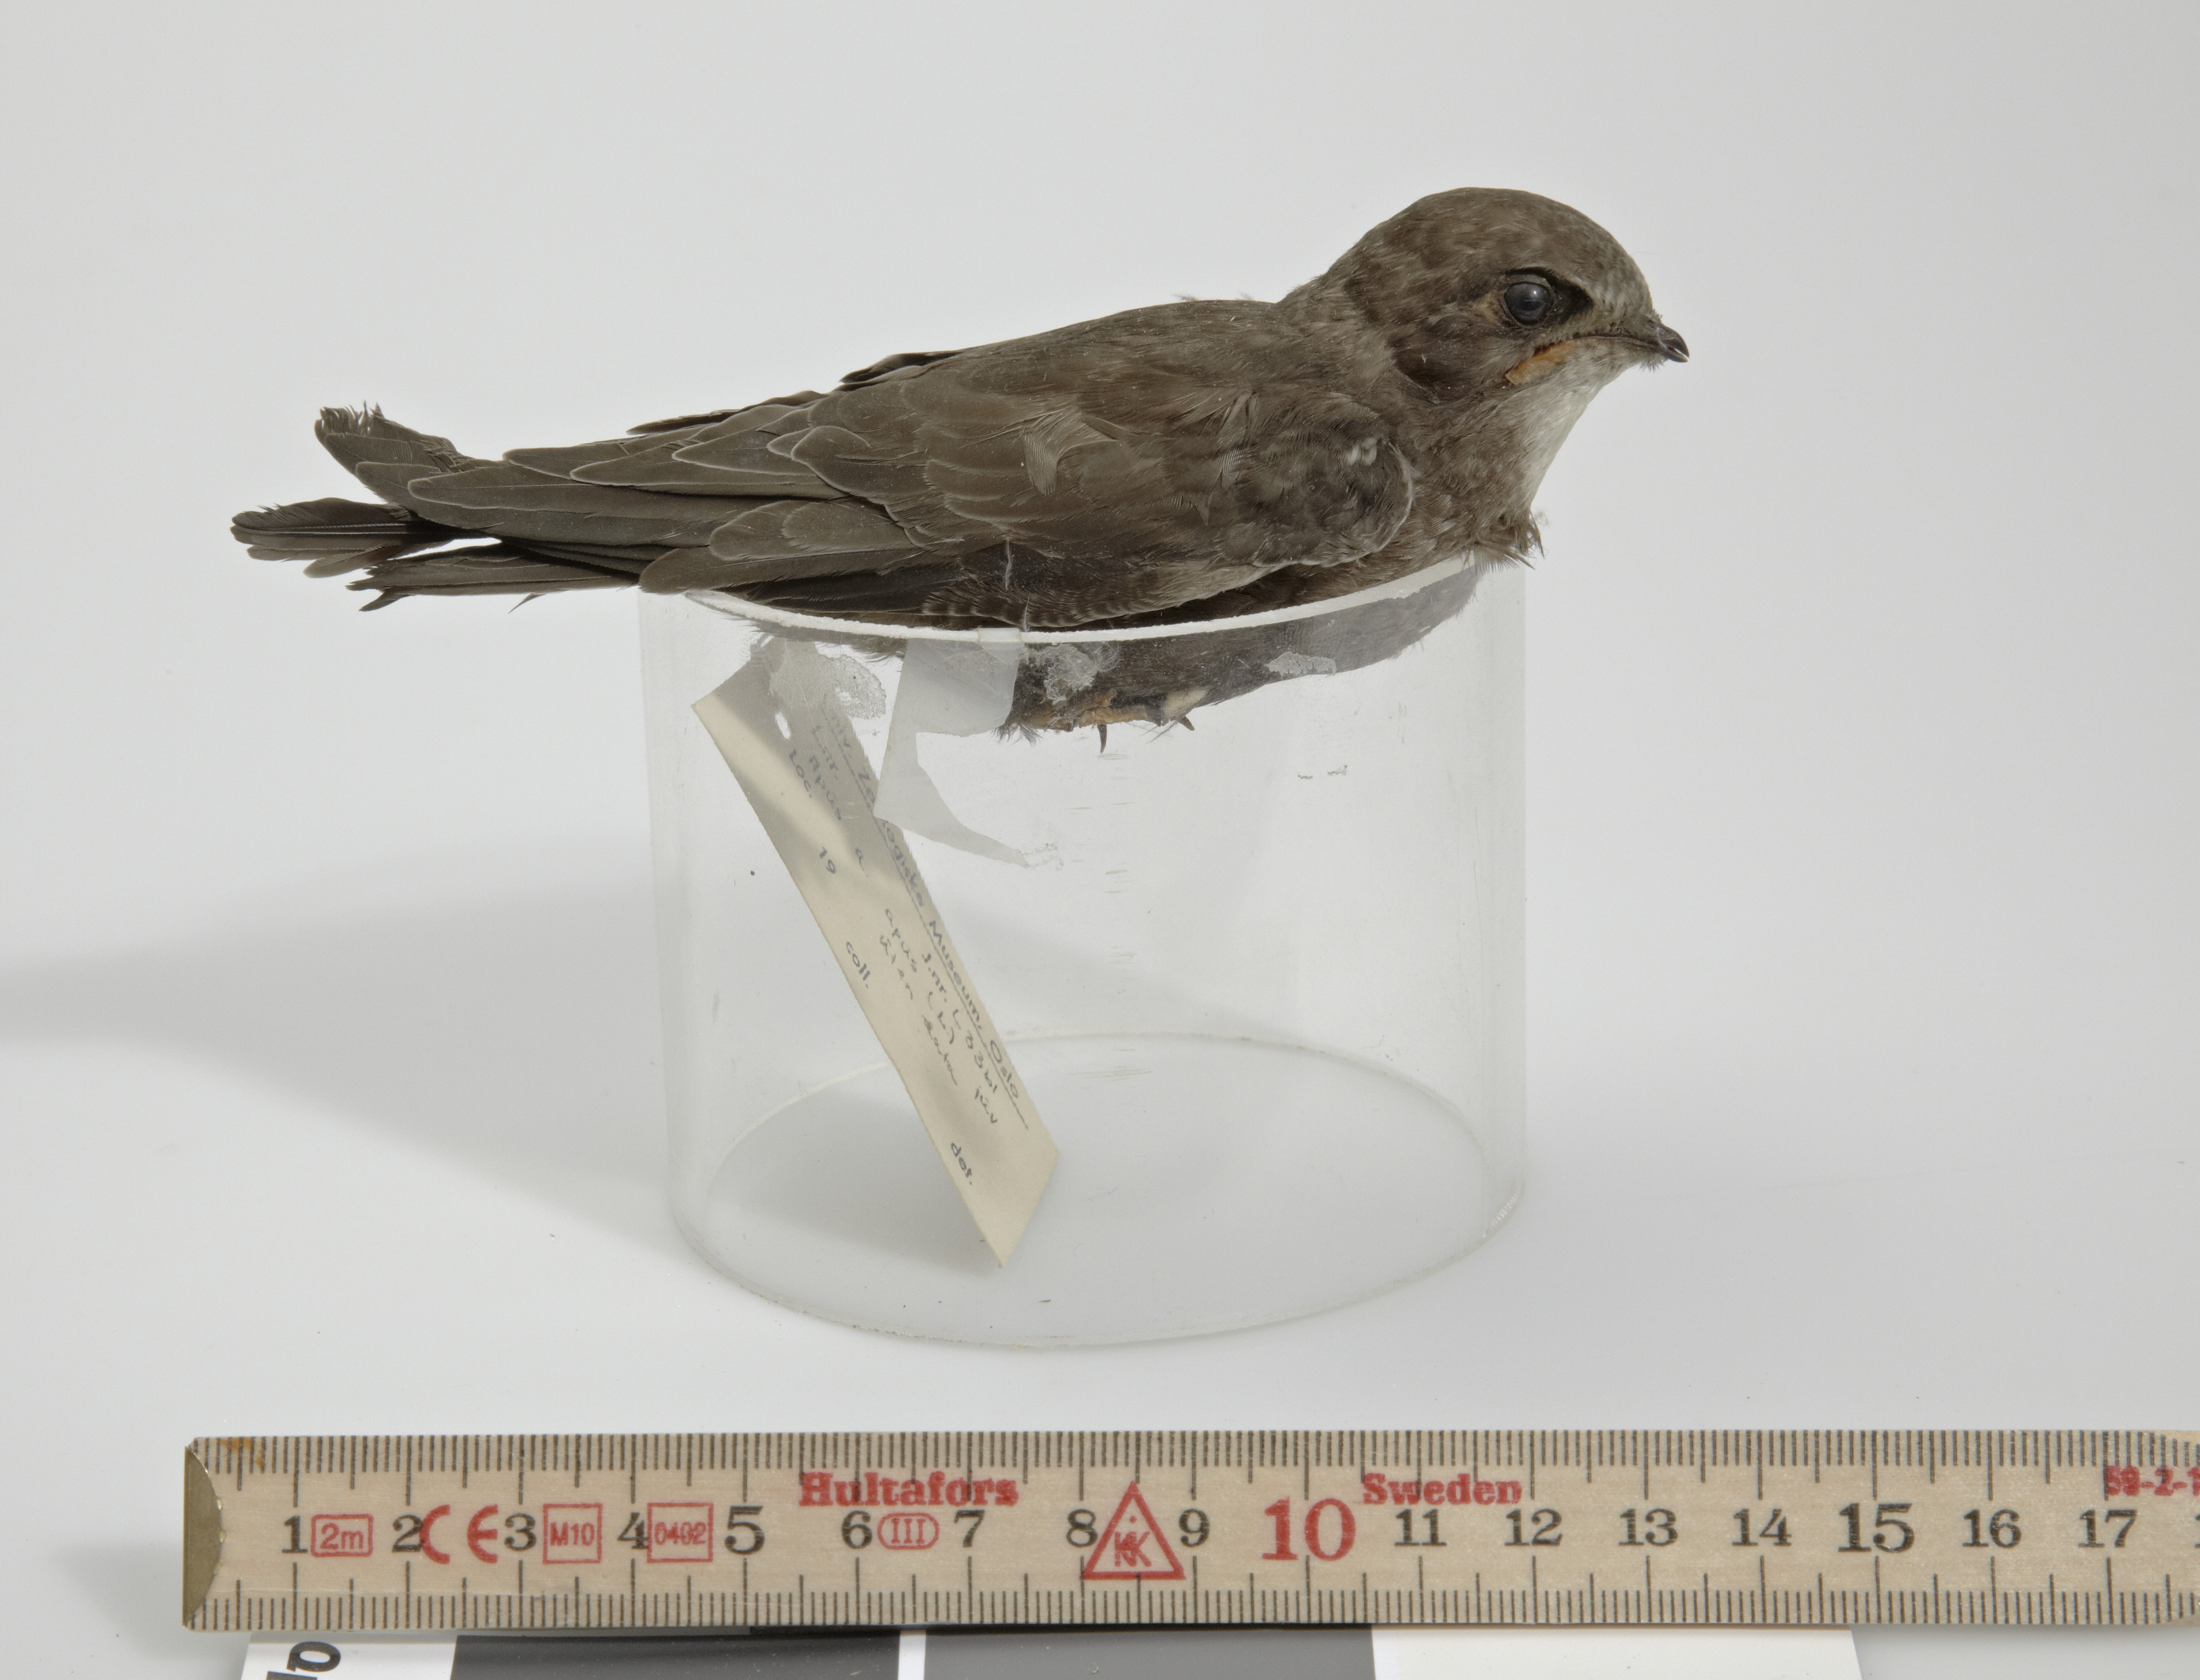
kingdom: Animalia
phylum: Chordata
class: Aves
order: Apodiformes
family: Apodidae
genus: Apus
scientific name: Apus apus
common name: Common swift
